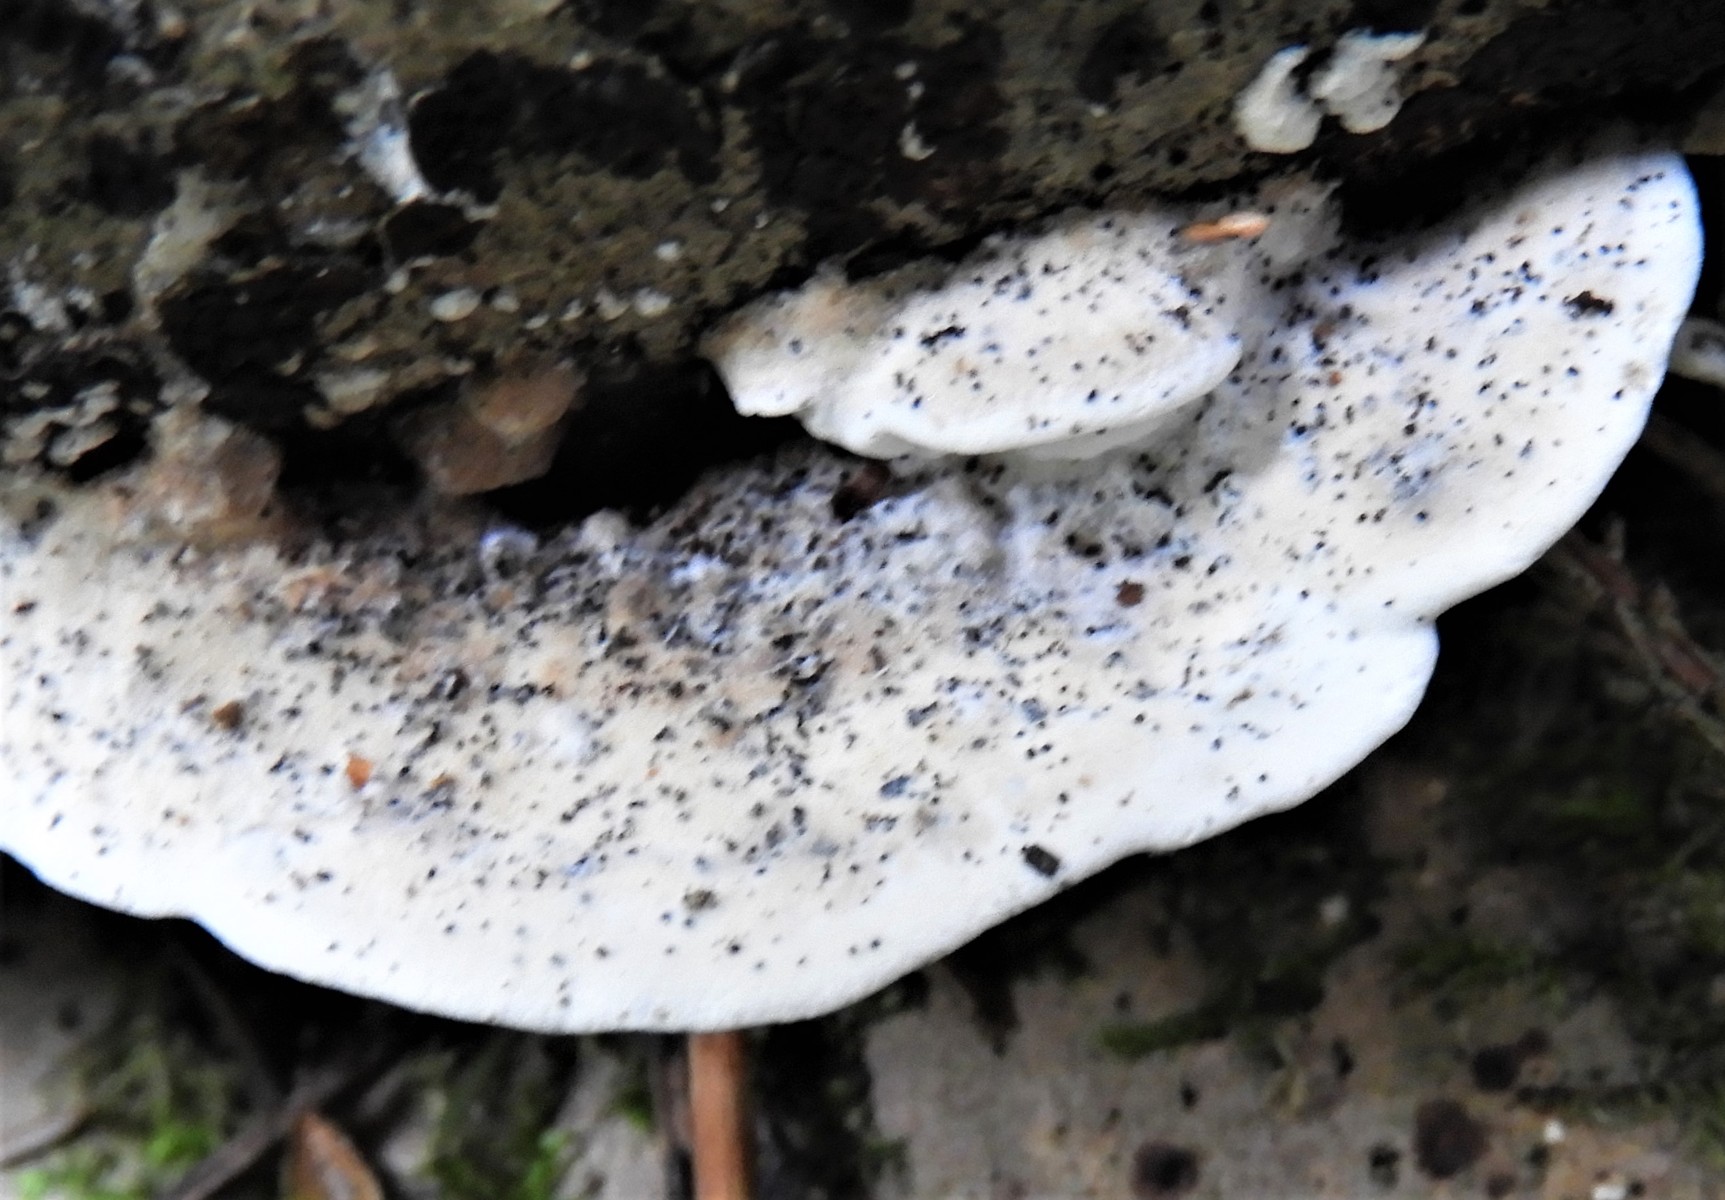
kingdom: Fungi
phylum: Basidiomycota
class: Agaricomycetes
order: Polyporales
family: Incrustoporiaceae
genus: Skeletocutis
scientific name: Skeletocutis nemoralis
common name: stor krystalporesvamp
